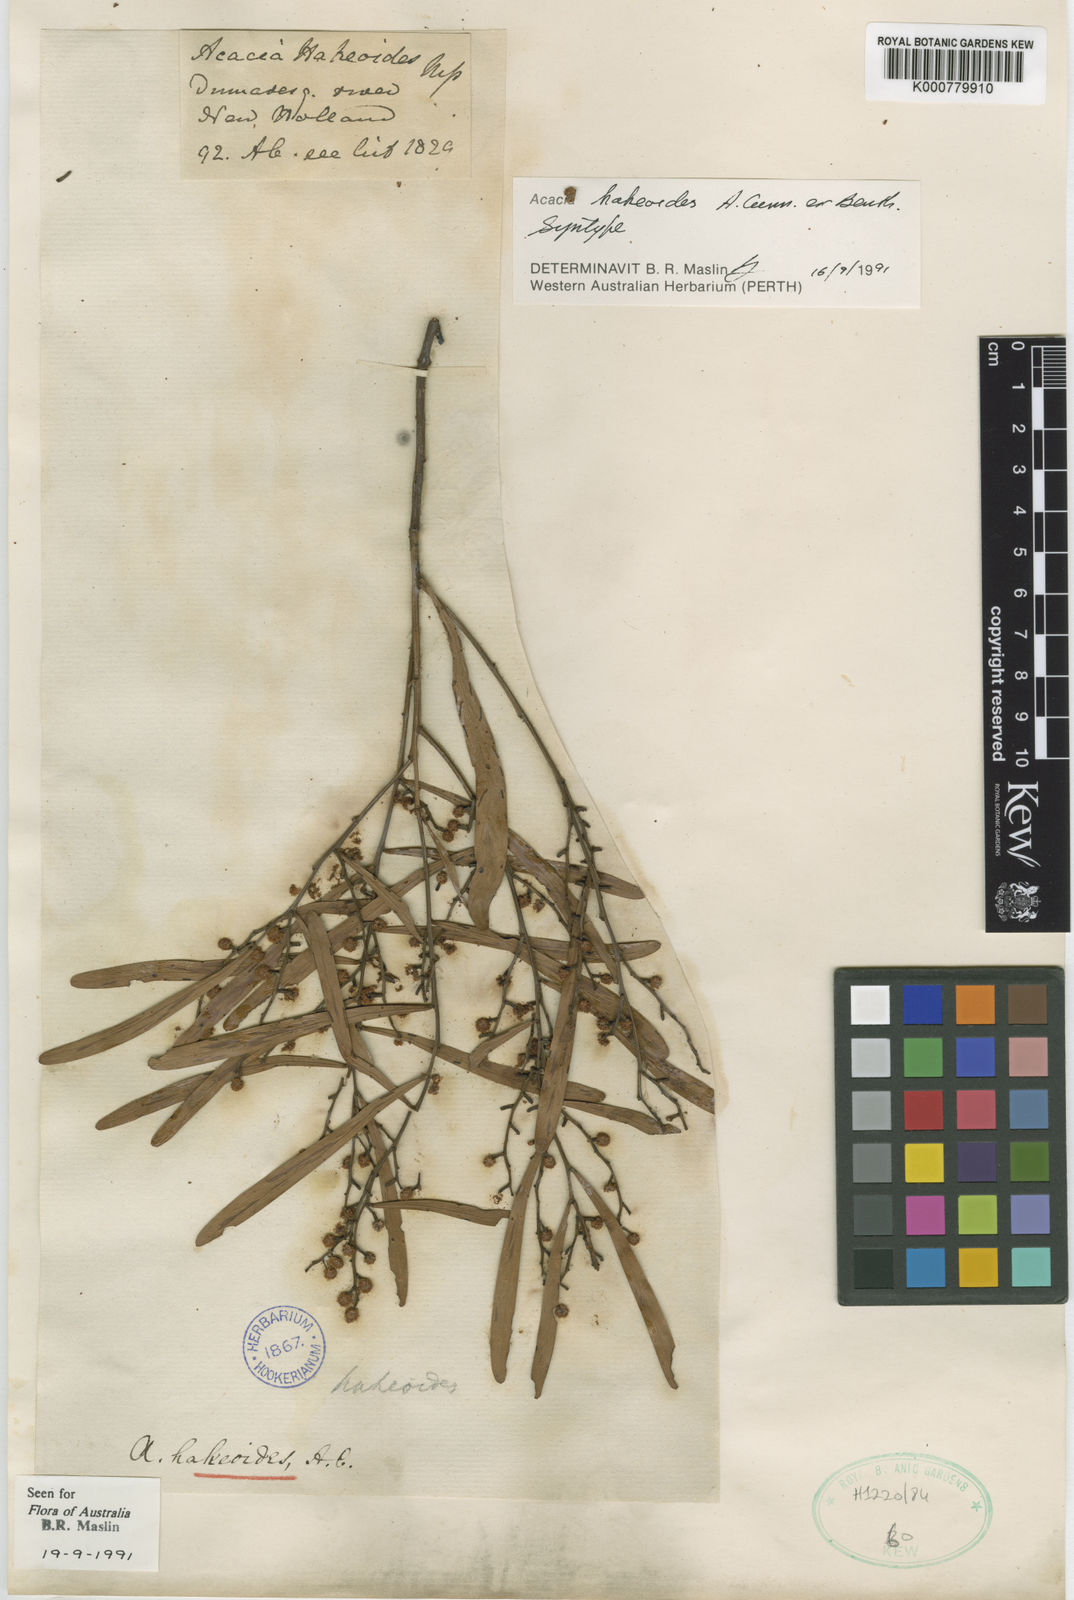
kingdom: Plantae
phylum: Tracheophyta
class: Magnoliopsida
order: Fabales
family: Fabaceae
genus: Acacia
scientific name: Acacia hakeoides
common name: Hakea wattle
